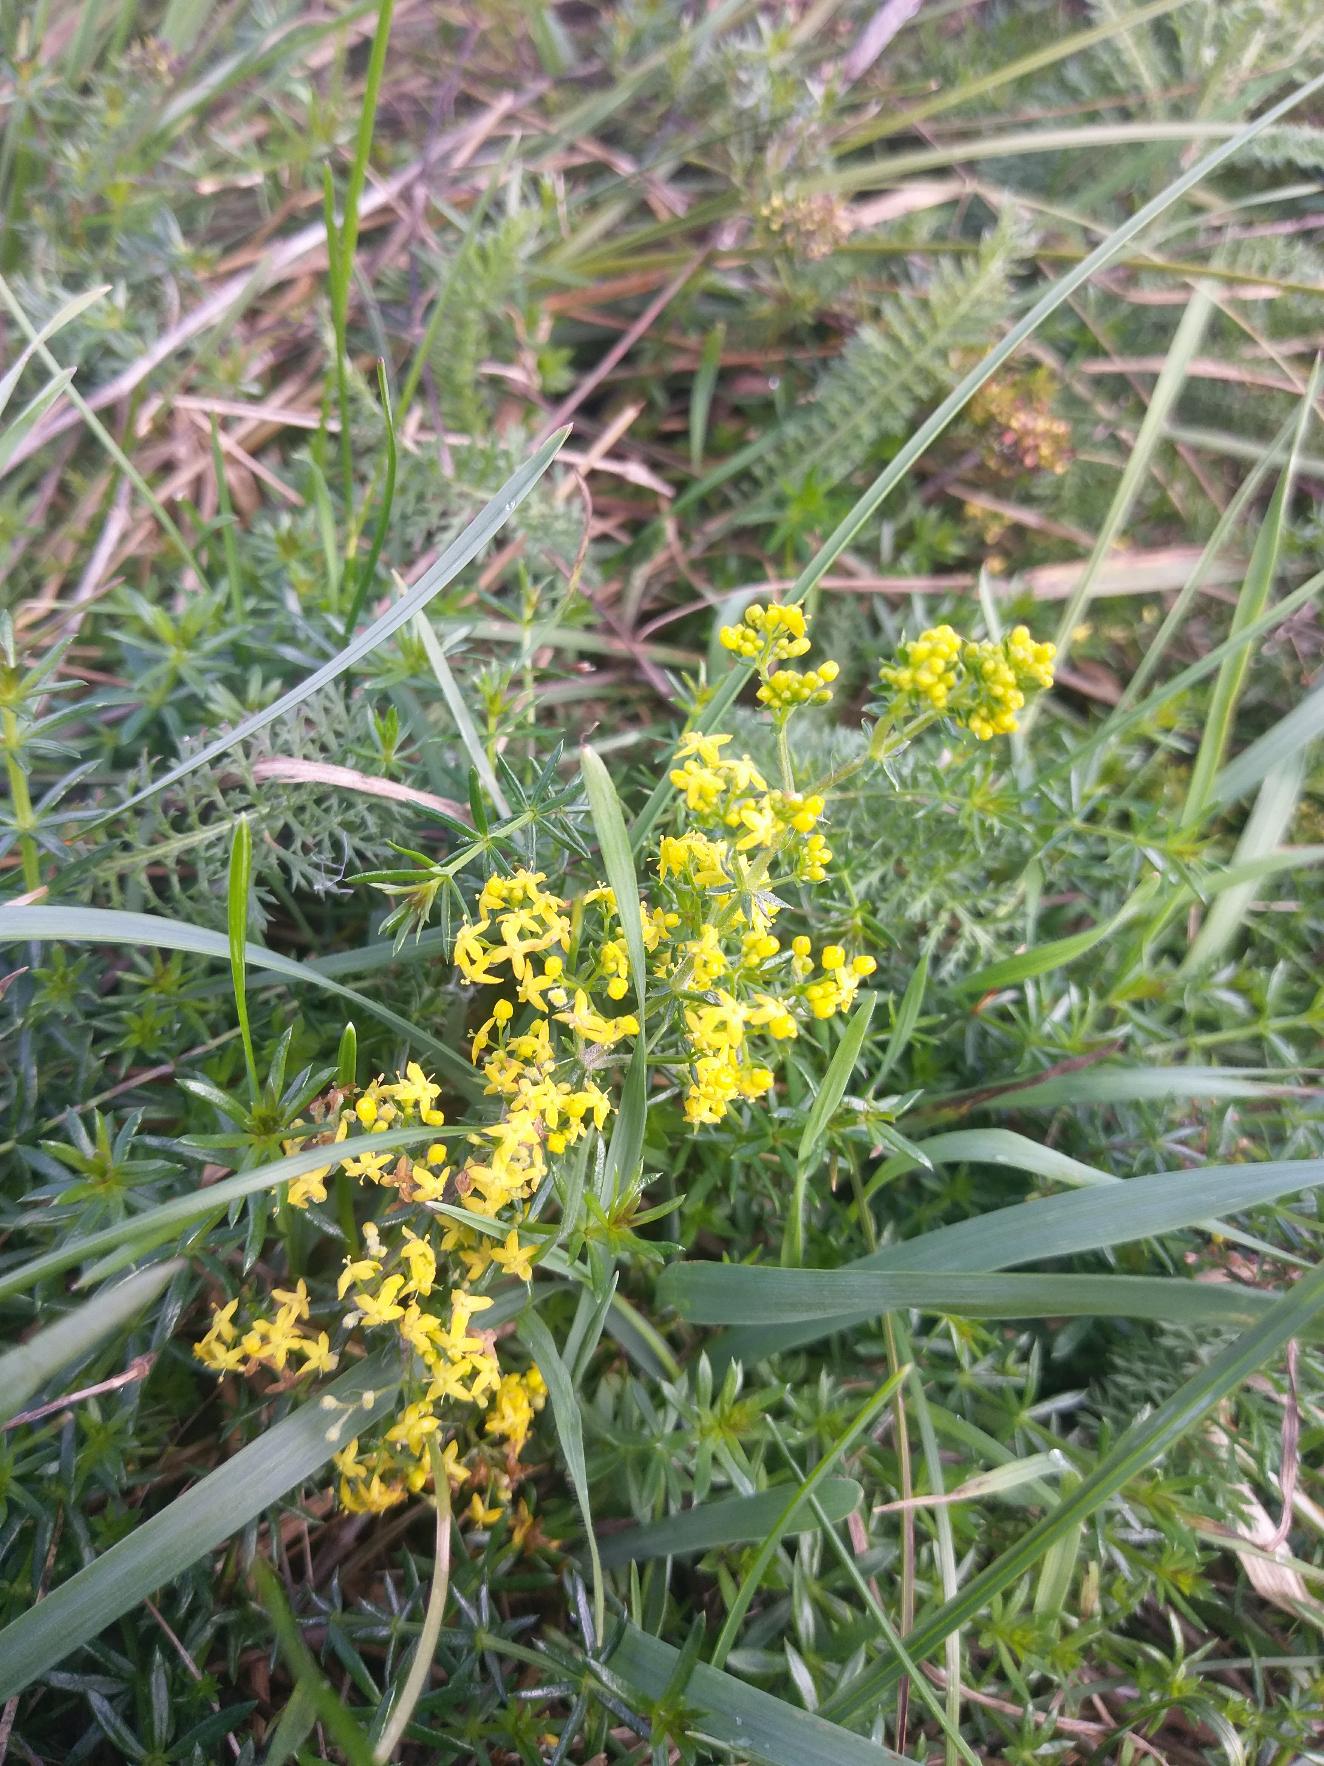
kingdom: Plantae
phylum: Tracheophyta
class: Magnoliopsida
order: Gentianales
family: Rubiaceae
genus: Galium
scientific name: Galium verum
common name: Gul snerre
